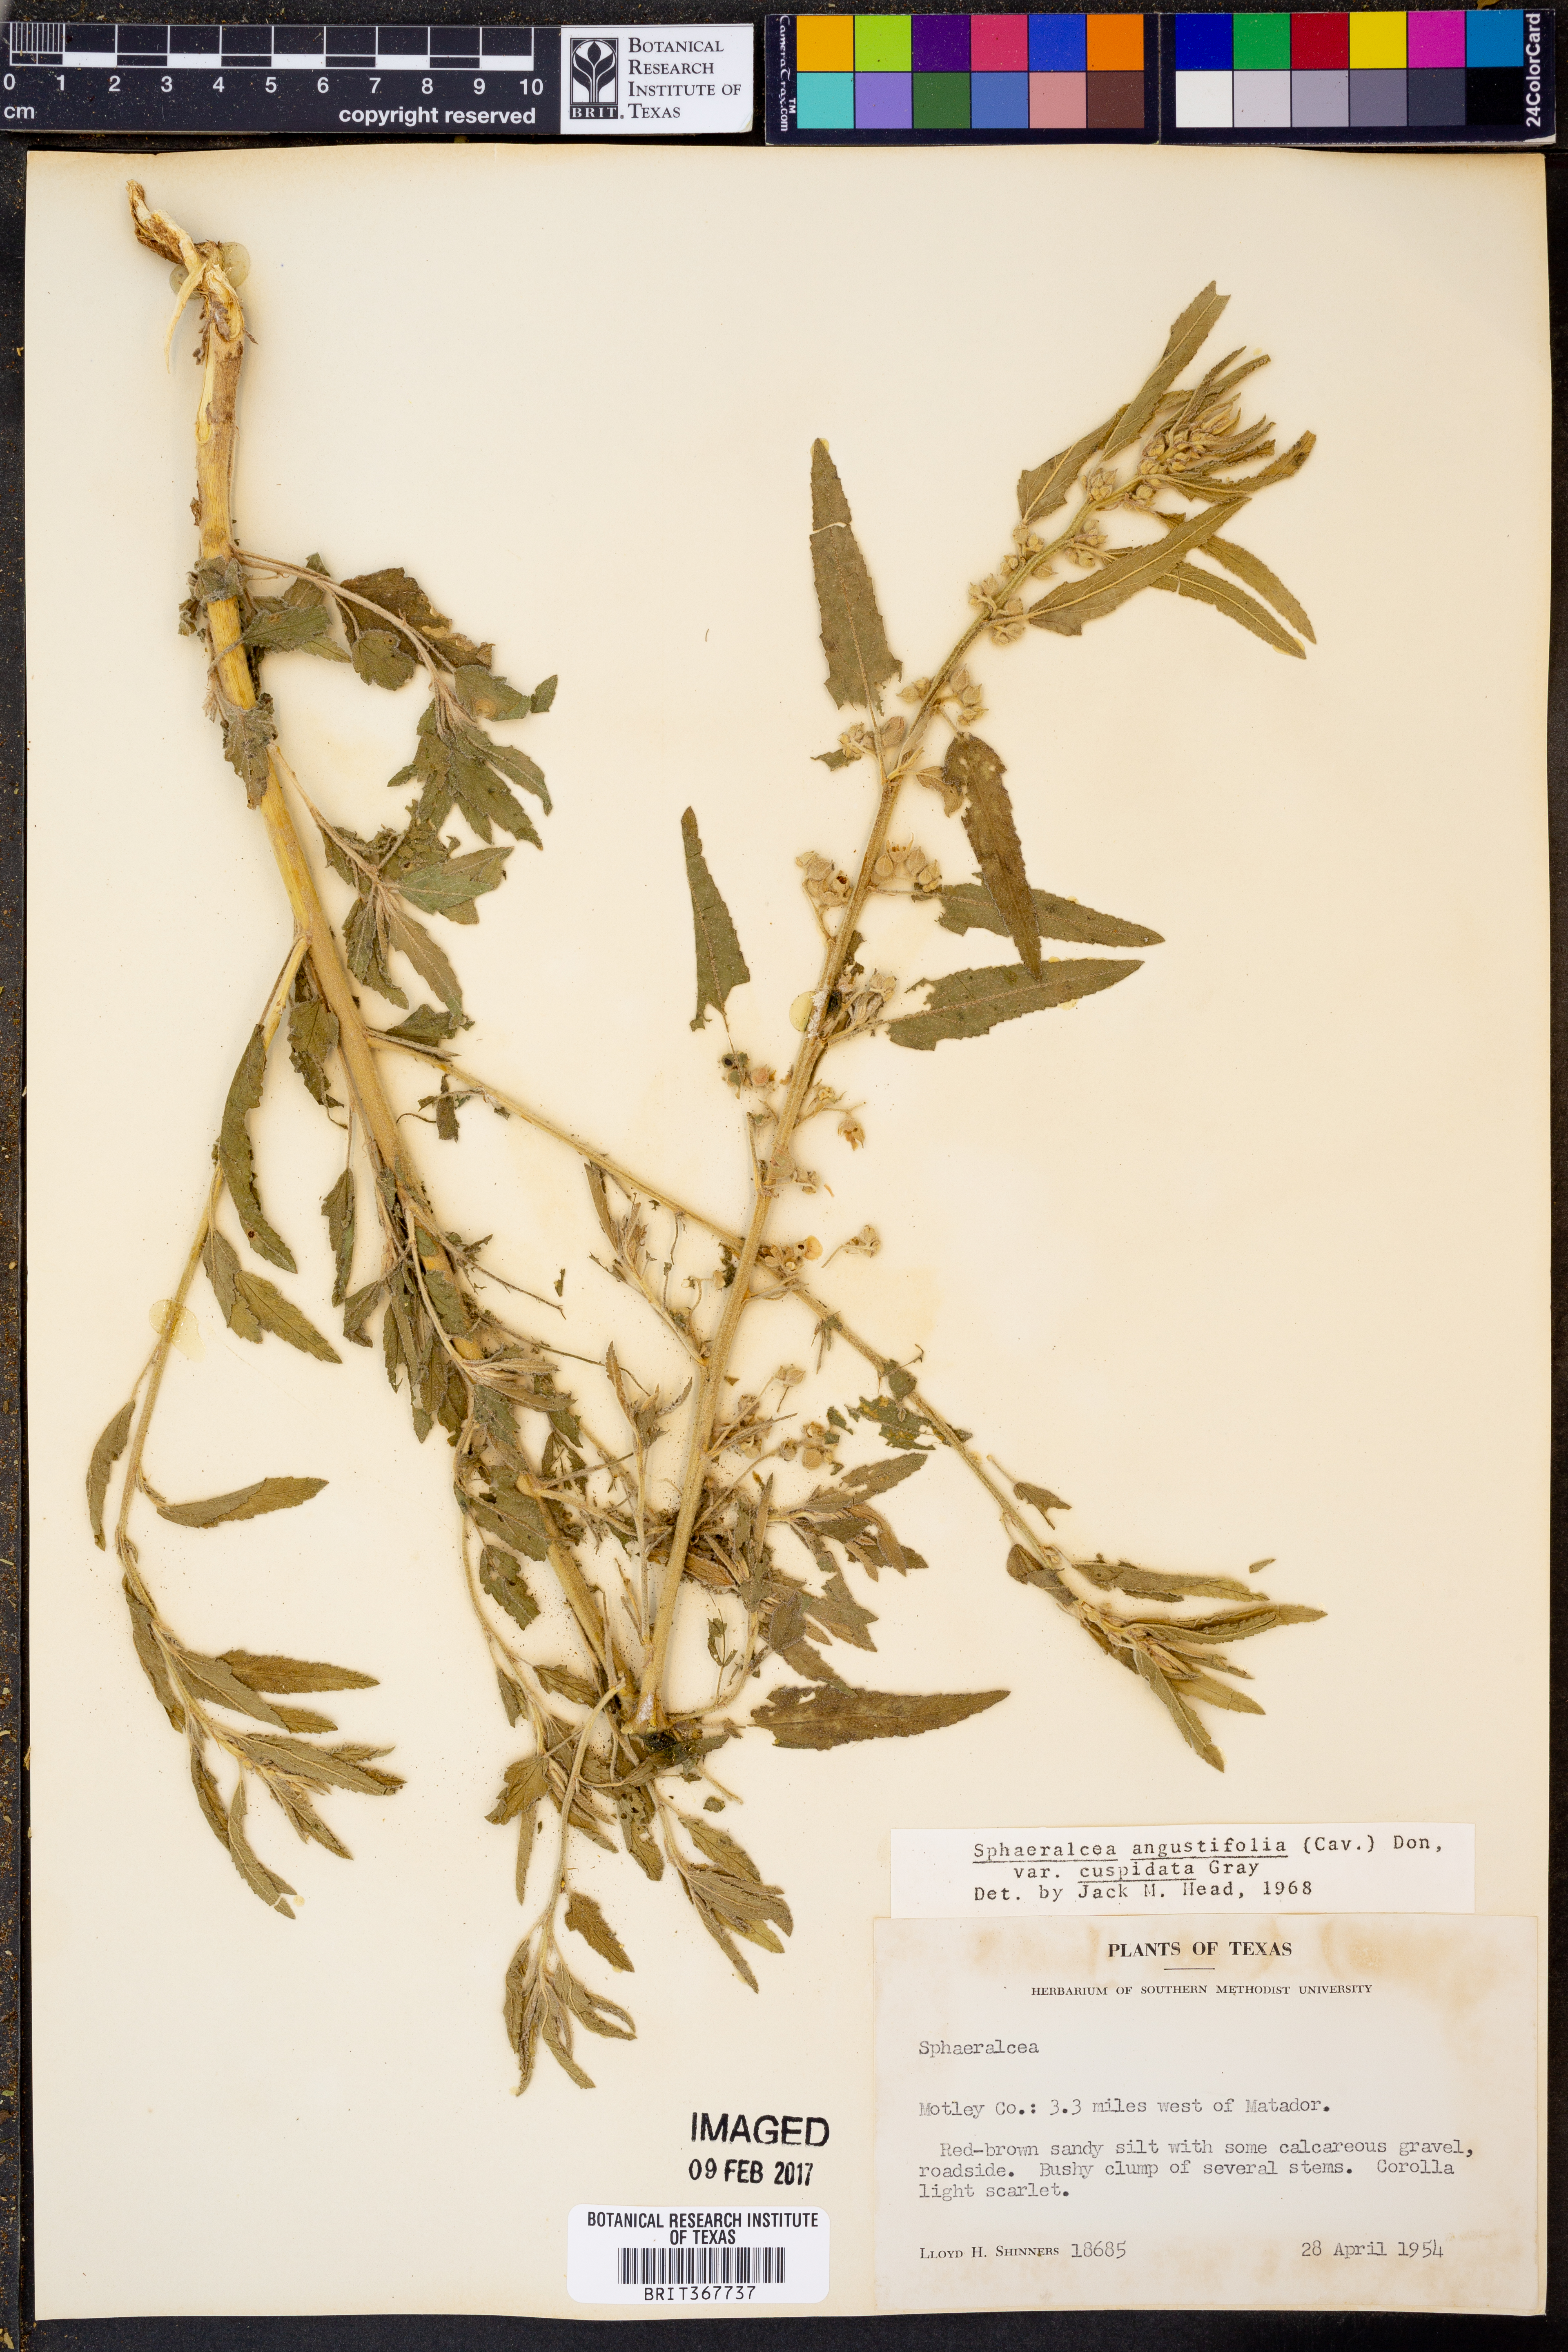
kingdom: Plantae
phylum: Tracheophyta
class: Magnoliopsida
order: Malvales
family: Malvaceae
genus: Sphaeralcea
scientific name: Sphaeralcea angustifolia
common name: Copper globe-mallow
